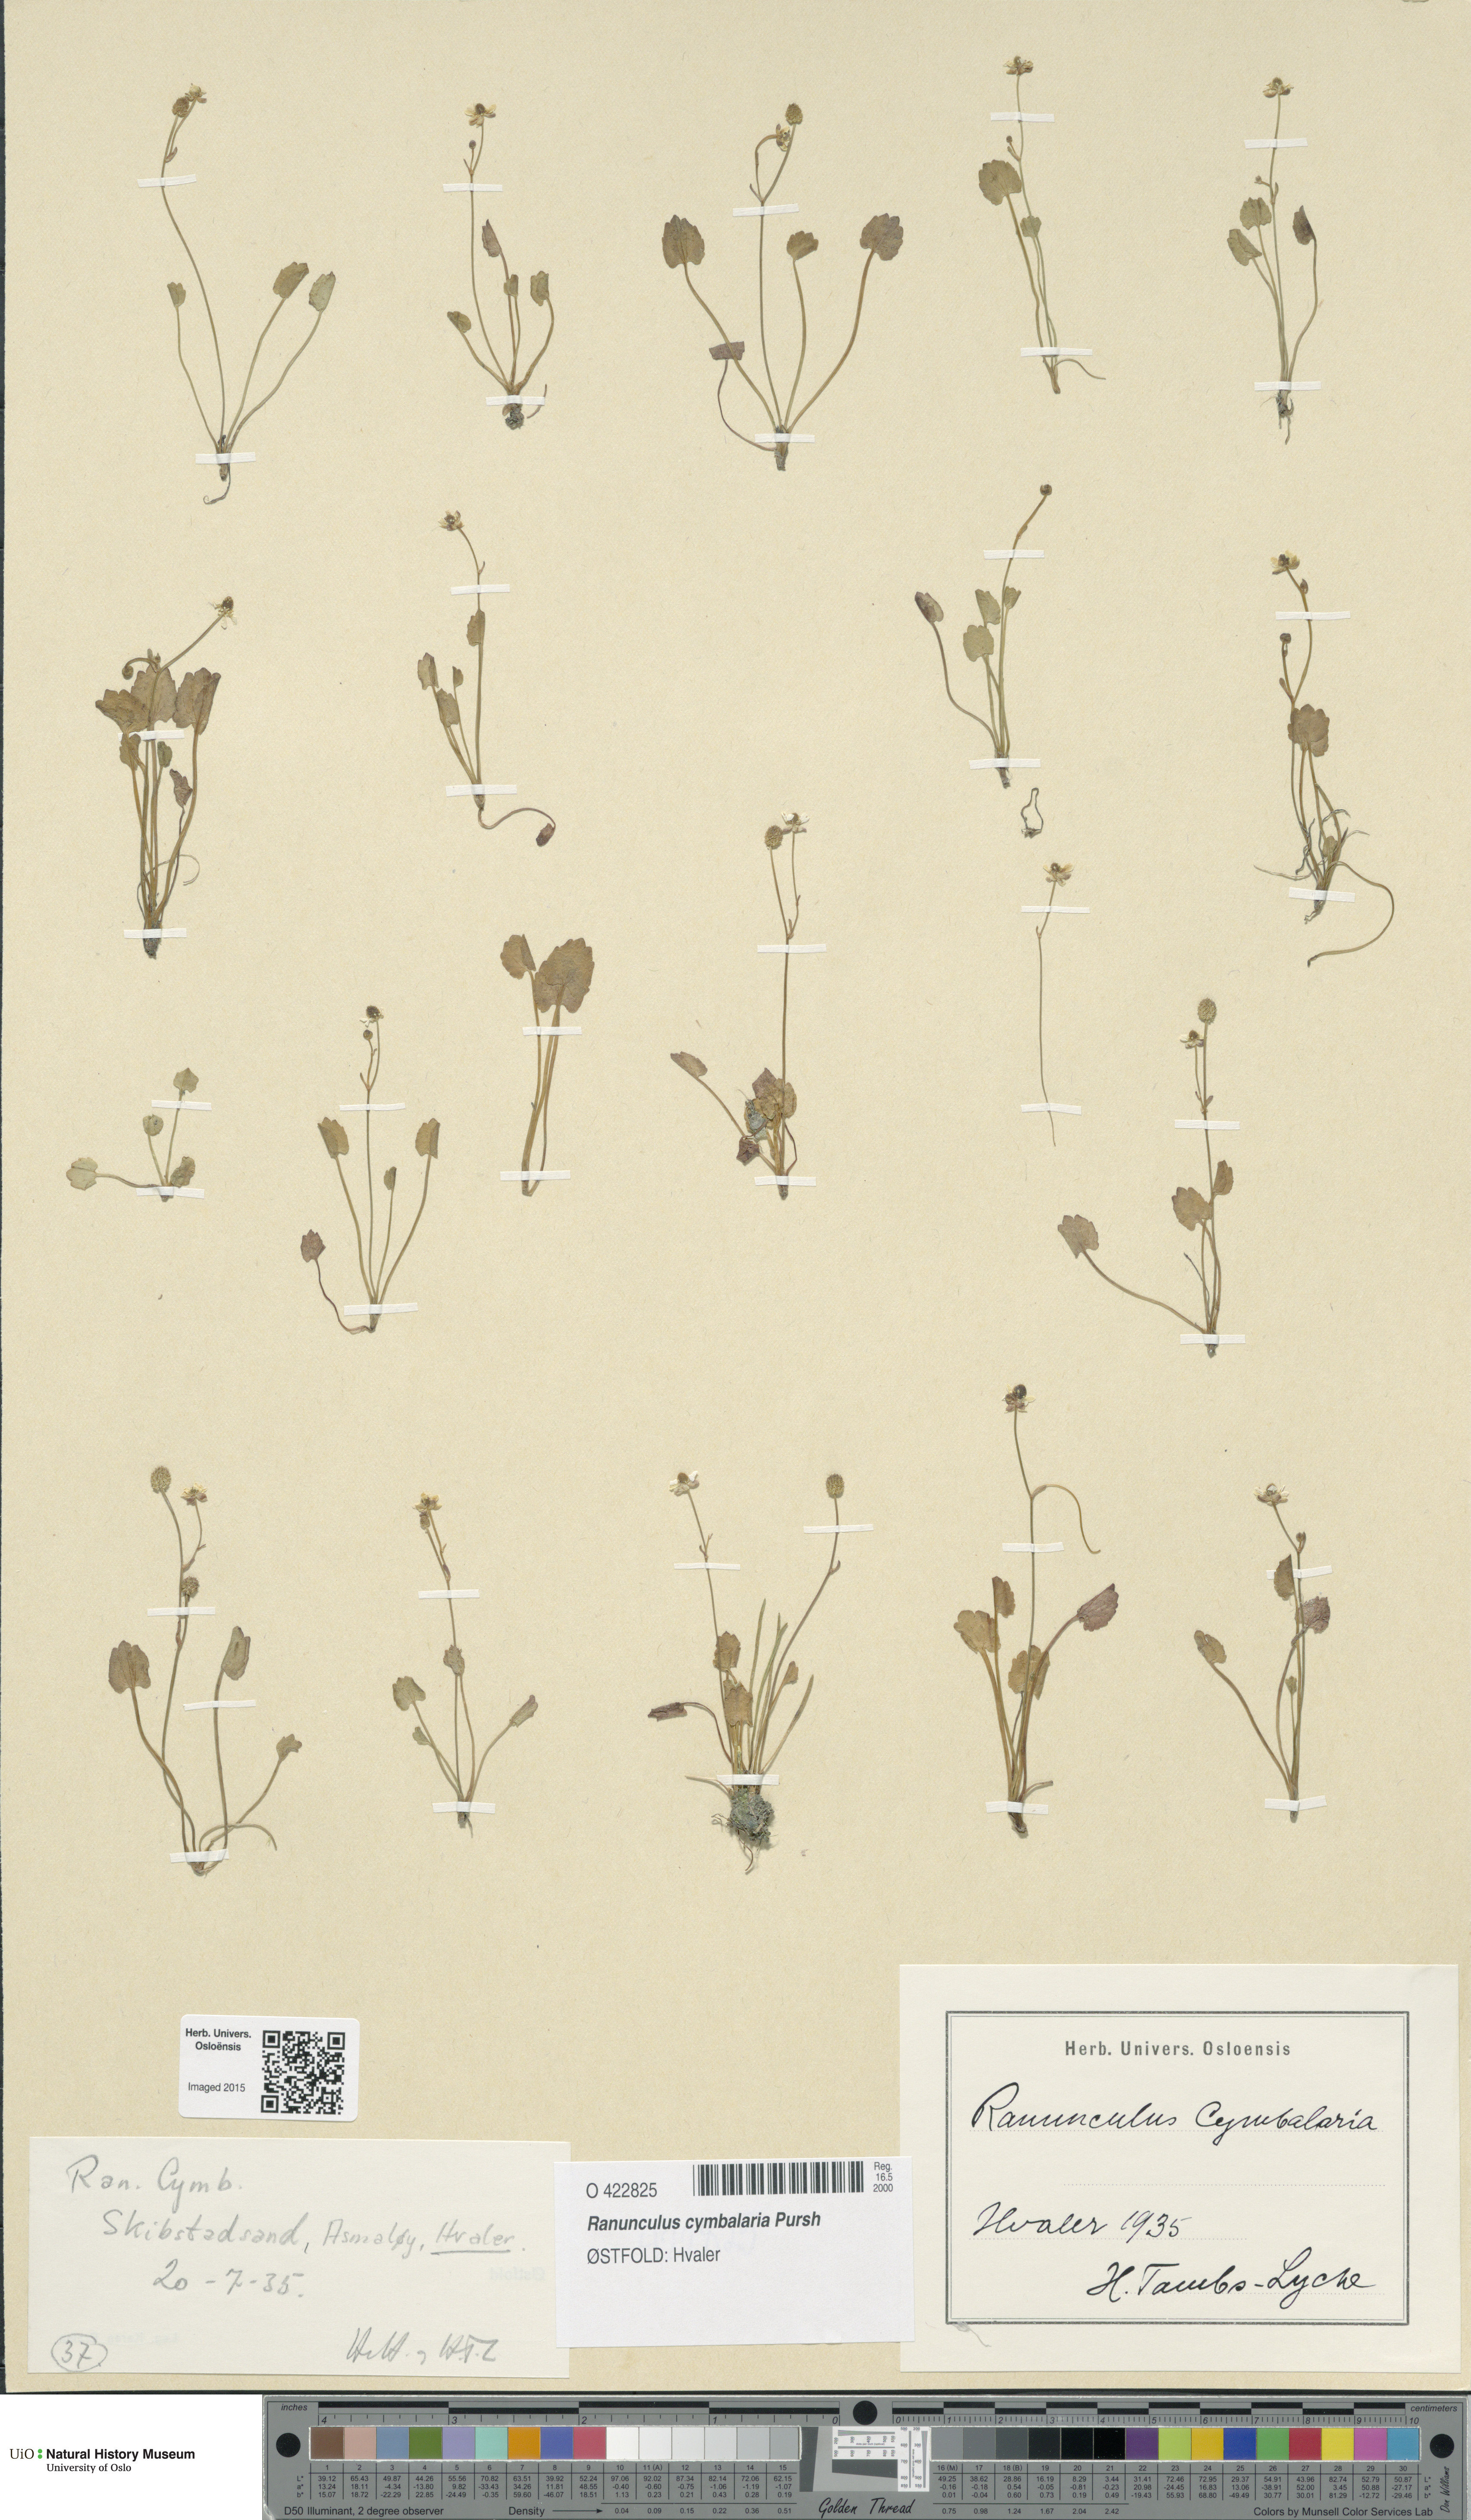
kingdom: Plantae
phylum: Tracheophyta
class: Magnoliopsida
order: Ranunculales
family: Ranunculaceae
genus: Halerpestes
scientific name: Halerpestes cymbalaria
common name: Seaside crowfoot
